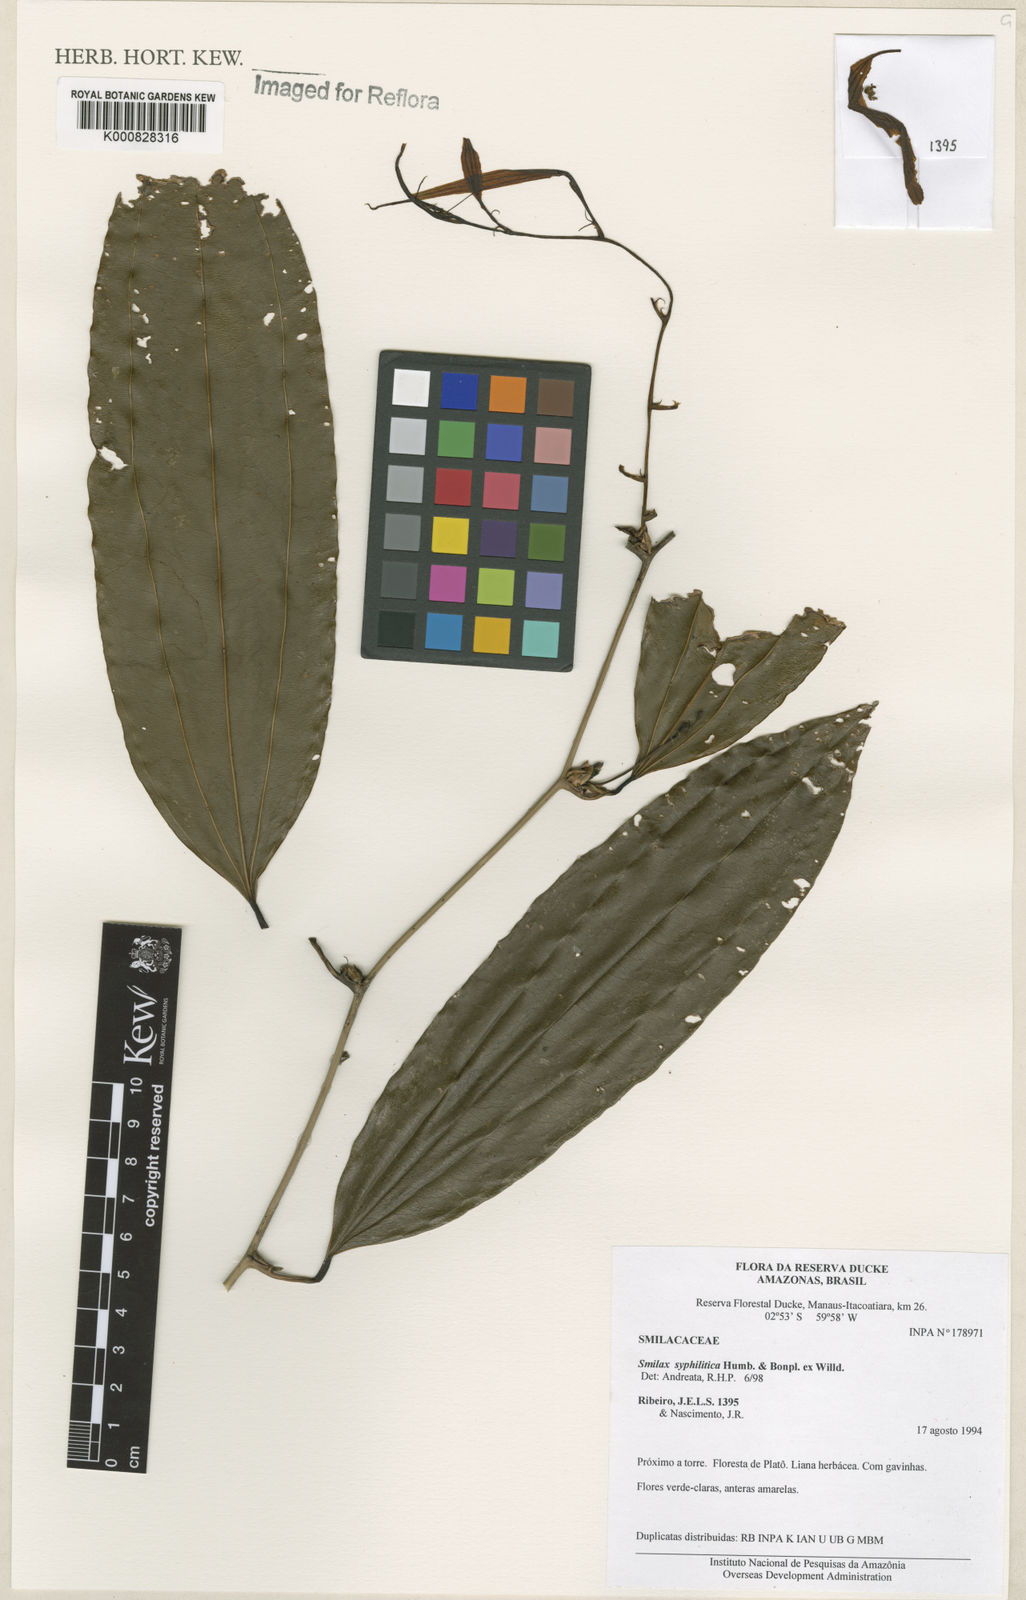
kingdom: Plantae
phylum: Tracheophyta
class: Liliopsida
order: Liliales
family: Smilacaceae
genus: Smilax
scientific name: Smilax siphilitica
